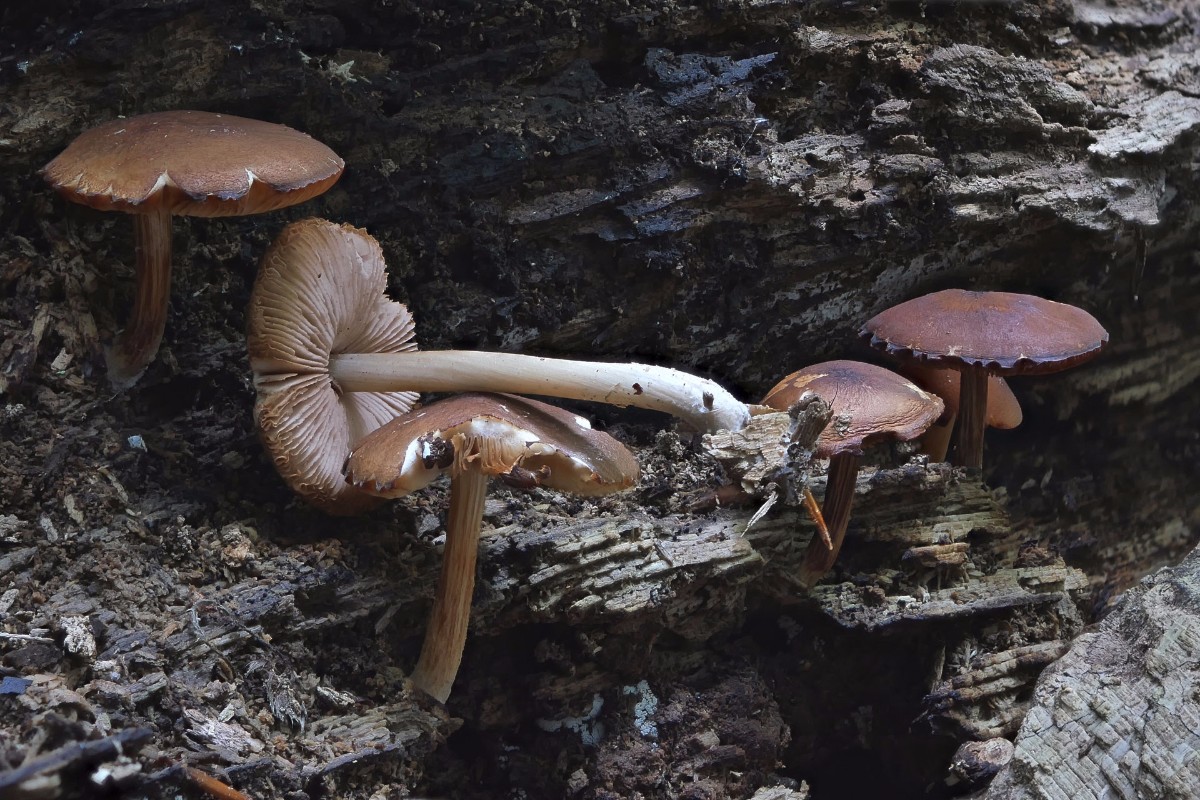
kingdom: Fungi
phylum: Basidiomycota
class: Agaricomycetes
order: Agaricales
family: Pluteaceae
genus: Pluteus
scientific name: Pluteus phlebophorus
